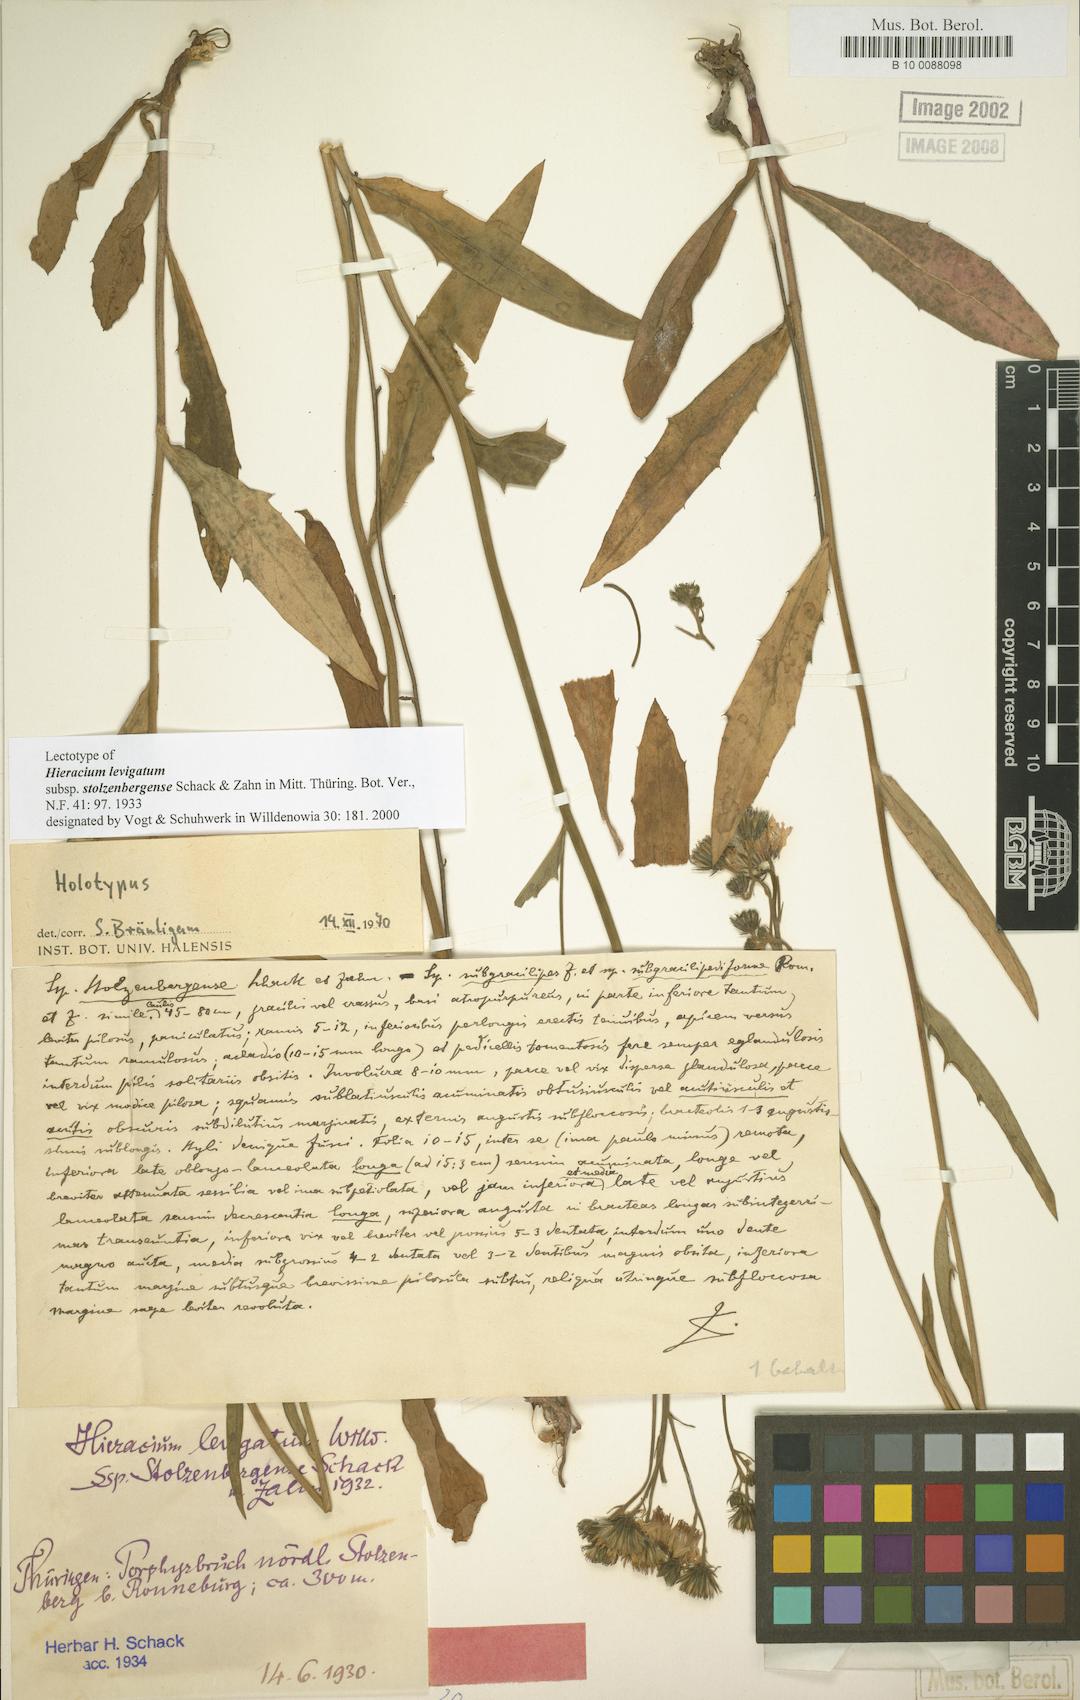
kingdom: Plantae
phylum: Tracheophyta
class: Magnoliopsida
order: Asterales
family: Asteraceae
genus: Hieracium
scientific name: Hieracium laevigatum
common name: Smooth hawkweed
